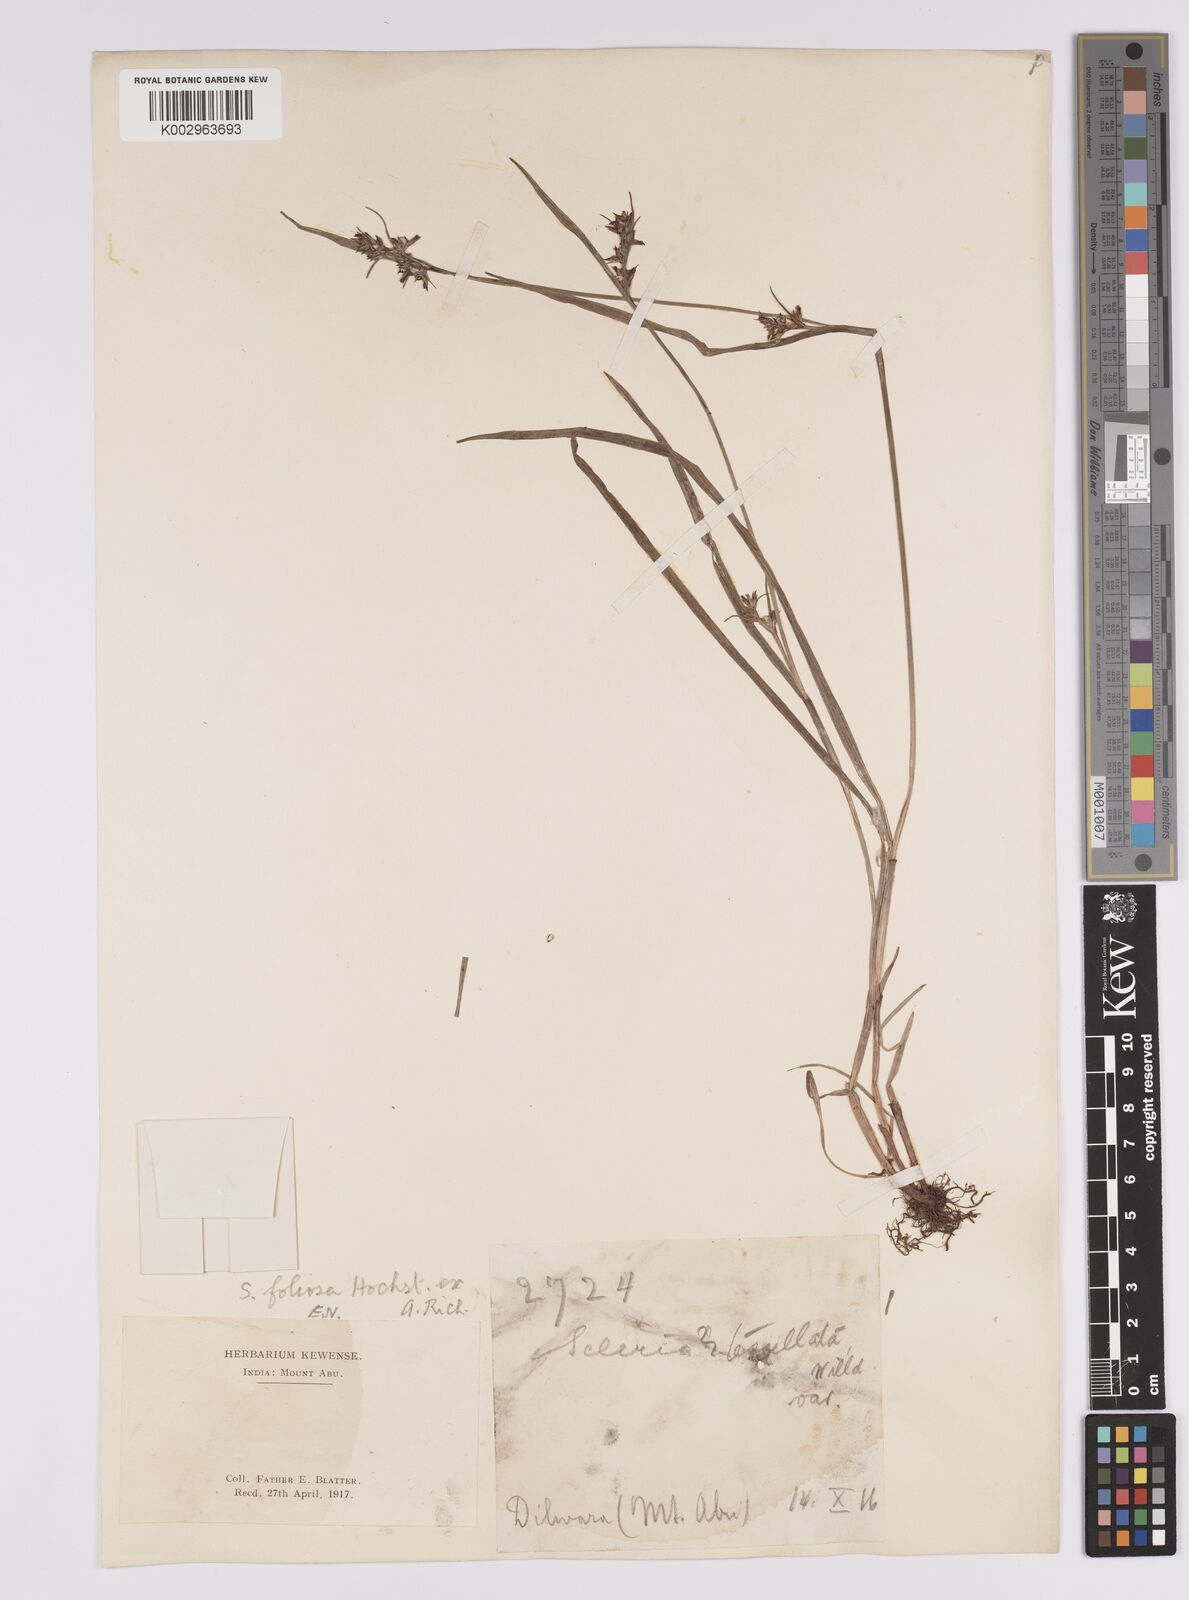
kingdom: Plantae
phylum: Tracheophyta
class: Liliopsida
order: Poales
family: Cyperaceae
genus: Scleria
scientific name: Scleria foliosa
